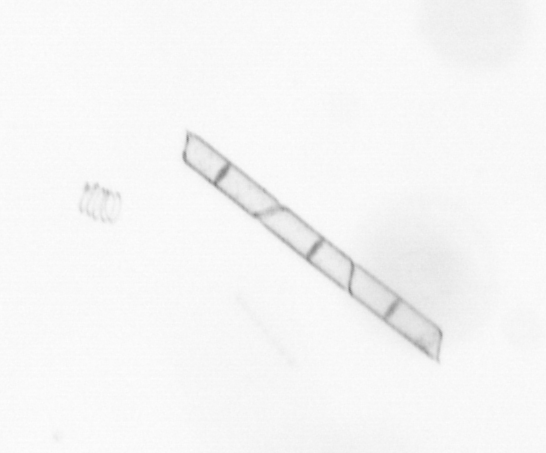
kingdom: Chromista
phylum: Ochrophyta
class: Bacillariophyceae
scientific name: Bacillariophyceae
